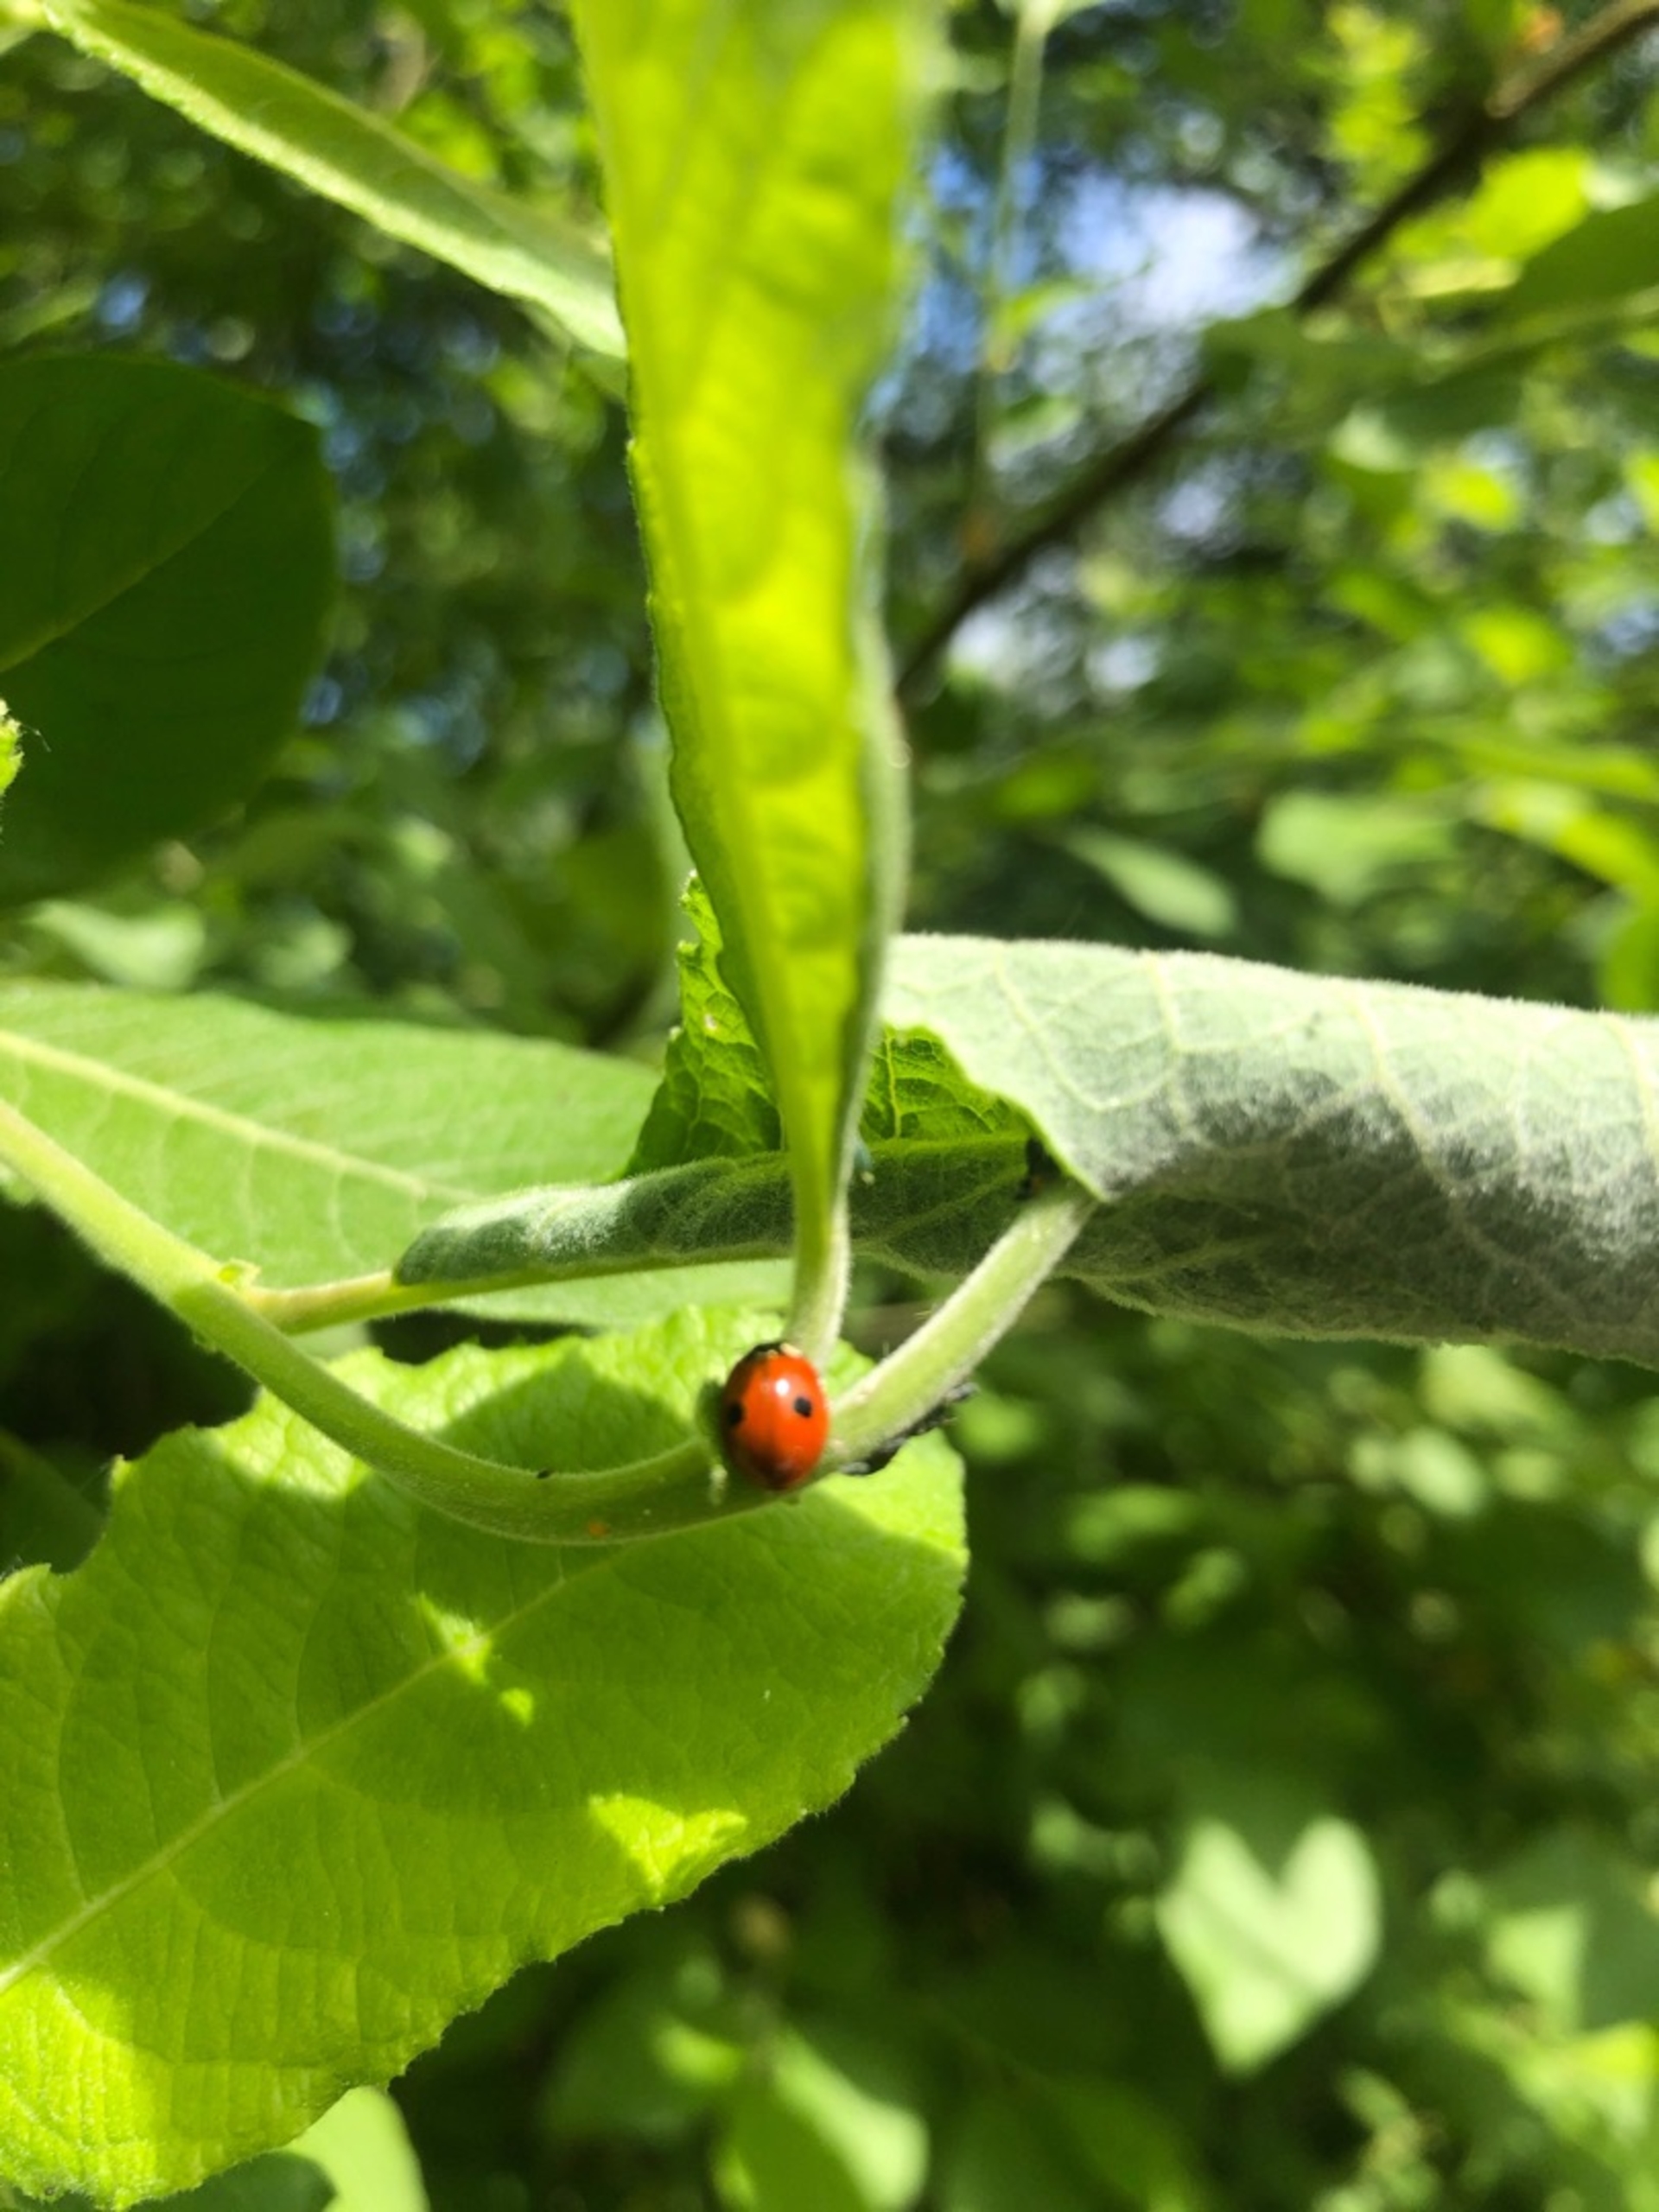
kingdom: Animalia
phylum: Arthropoda
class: Insecta
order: Coleoptera
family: Coccinellidae
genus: Adalia
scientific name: Adalia bipunctata
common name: Toplettet mariehøne
